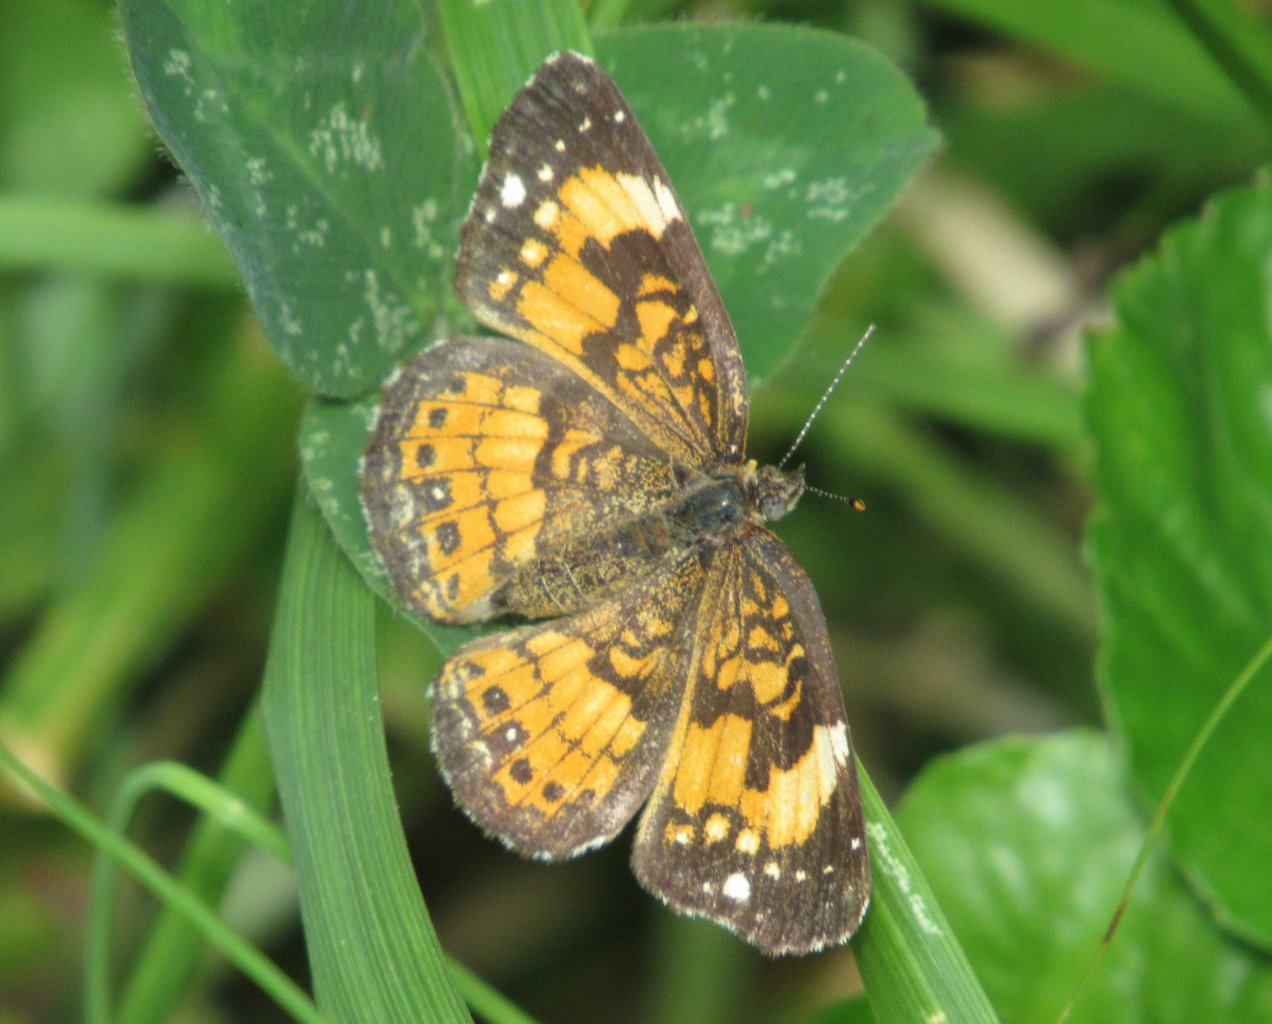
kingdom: Animalia
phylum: Arthropoda
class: Insecta
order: Lepidoptera
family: Nymphalidae
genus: Chlosyne
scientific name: Chlosyne nycteis
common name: Silvery Checkerspot
